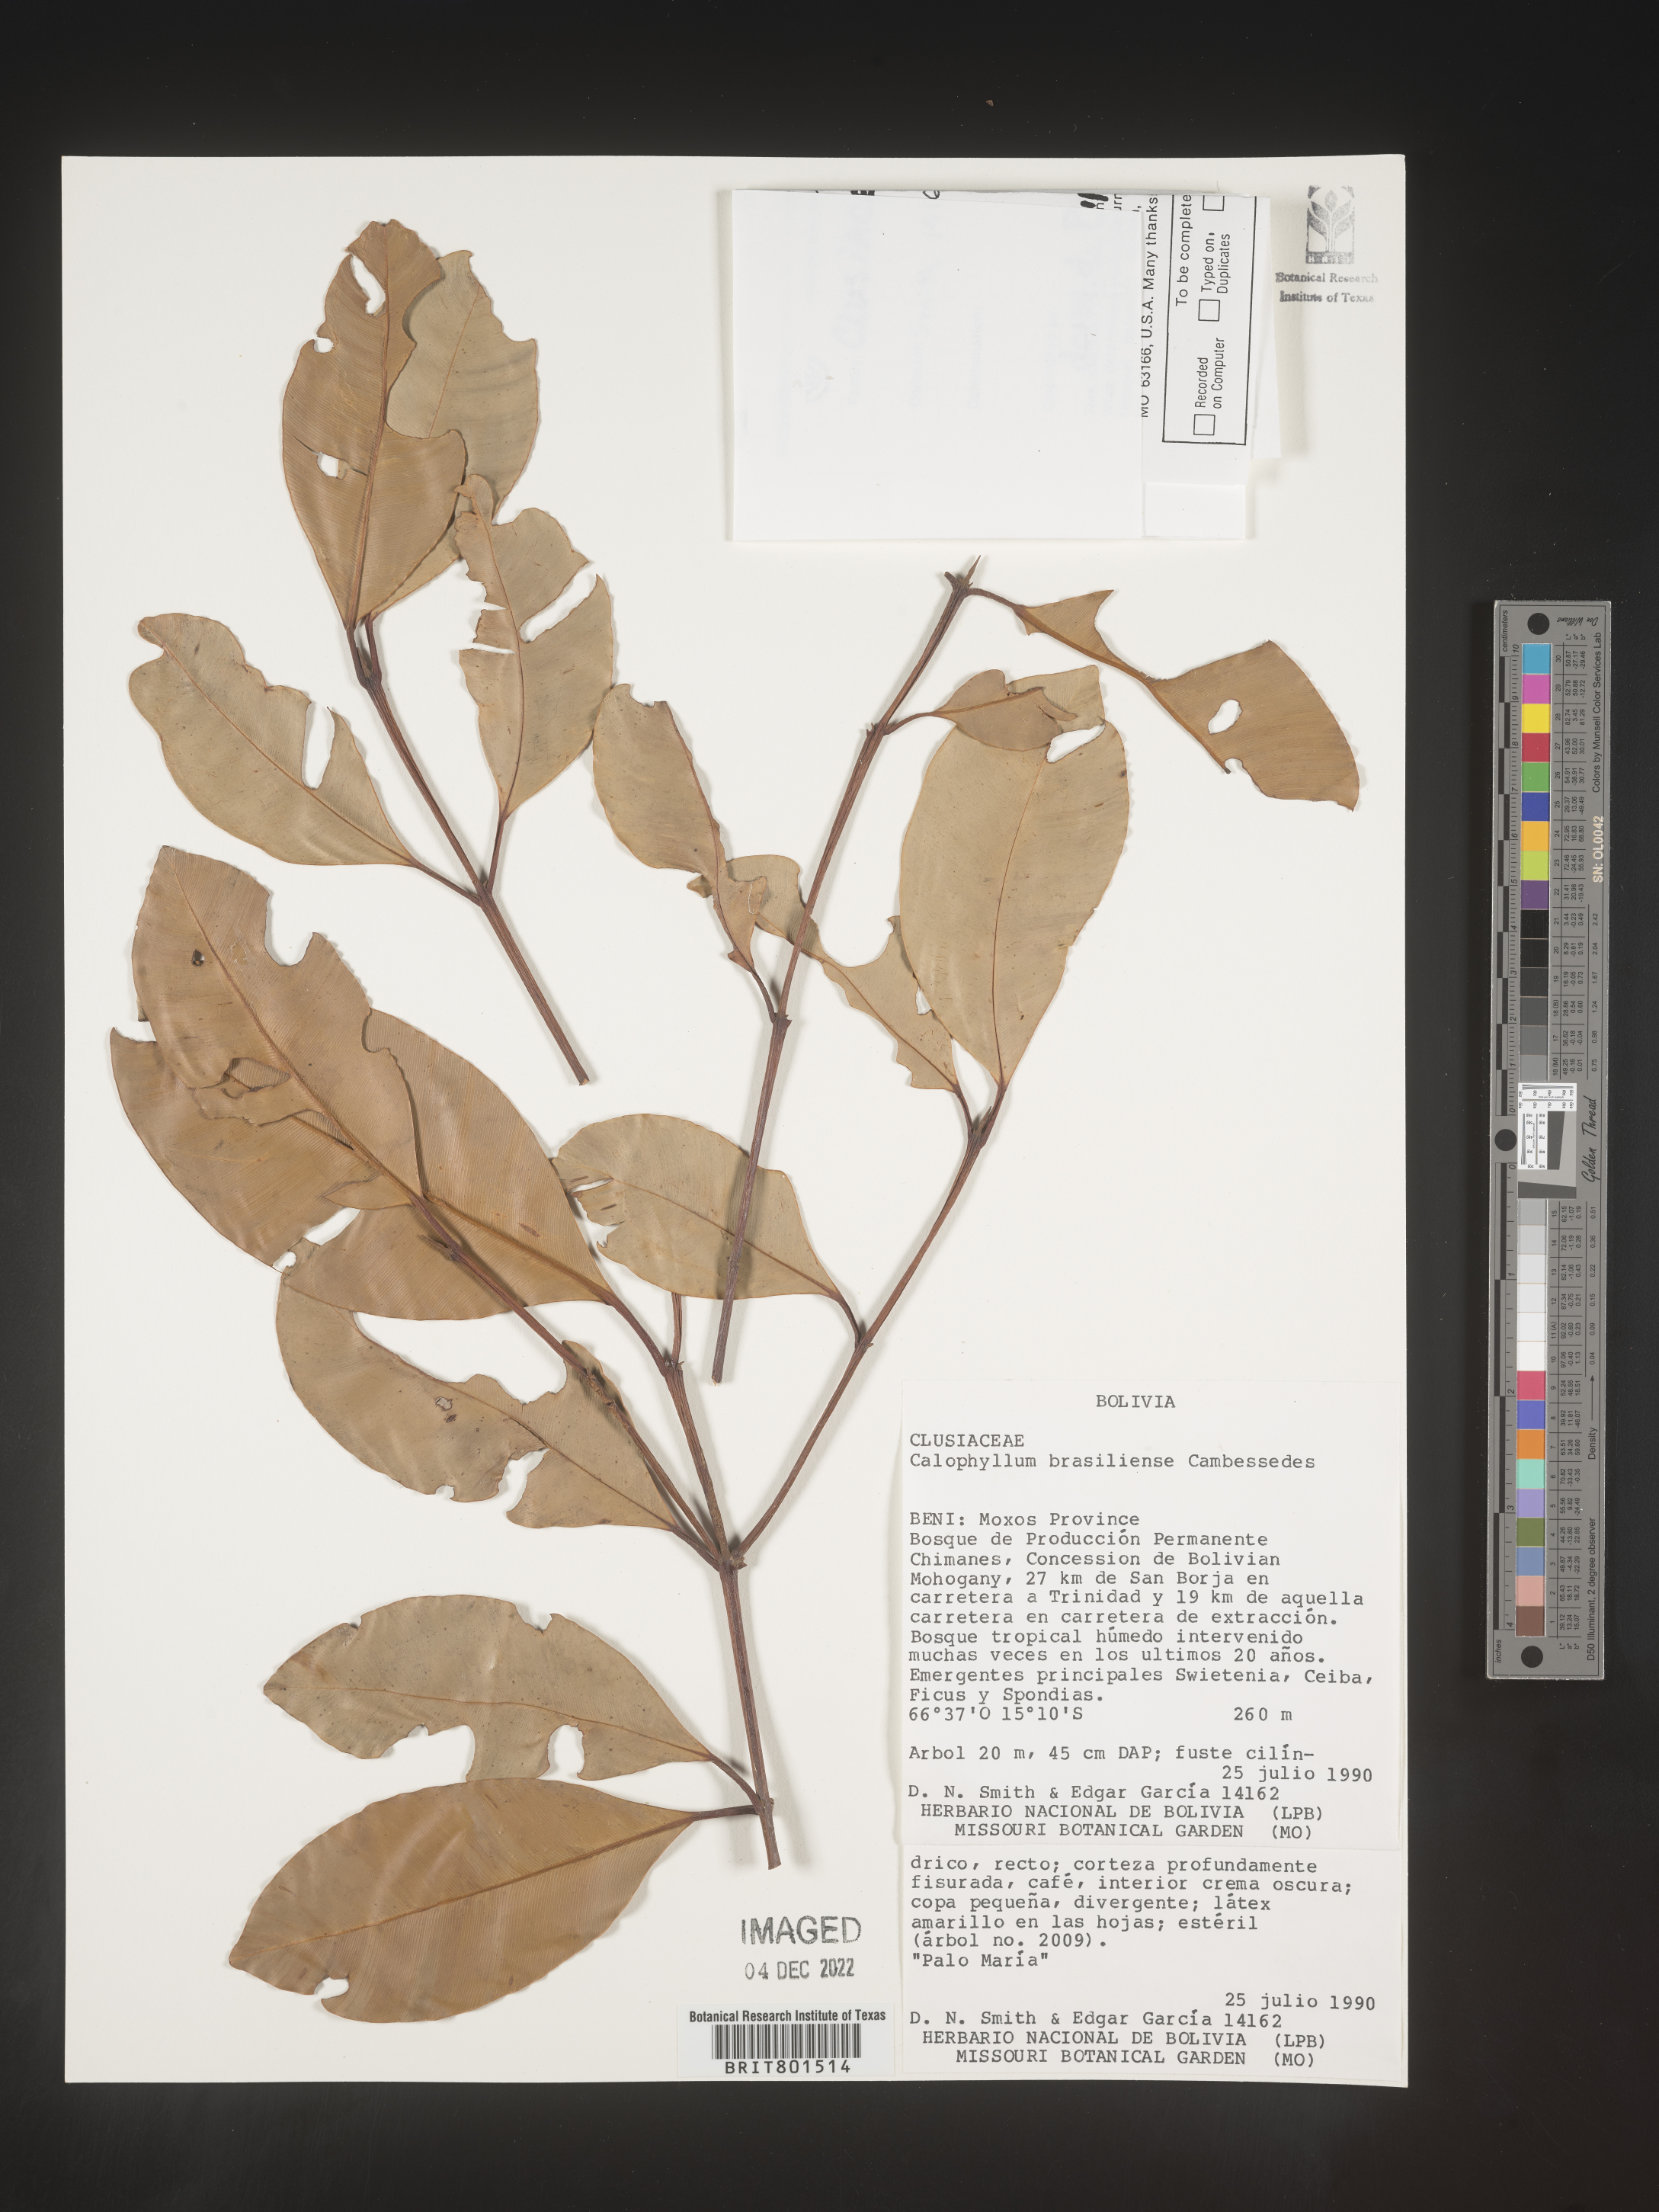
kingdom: Plantae
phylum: Tracheophyta
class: Magnoliopsida
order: Malpighiales
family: Calophyllaceae
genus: Calophyllum
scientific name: Calophyllum brasiliense
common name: Santa maria
